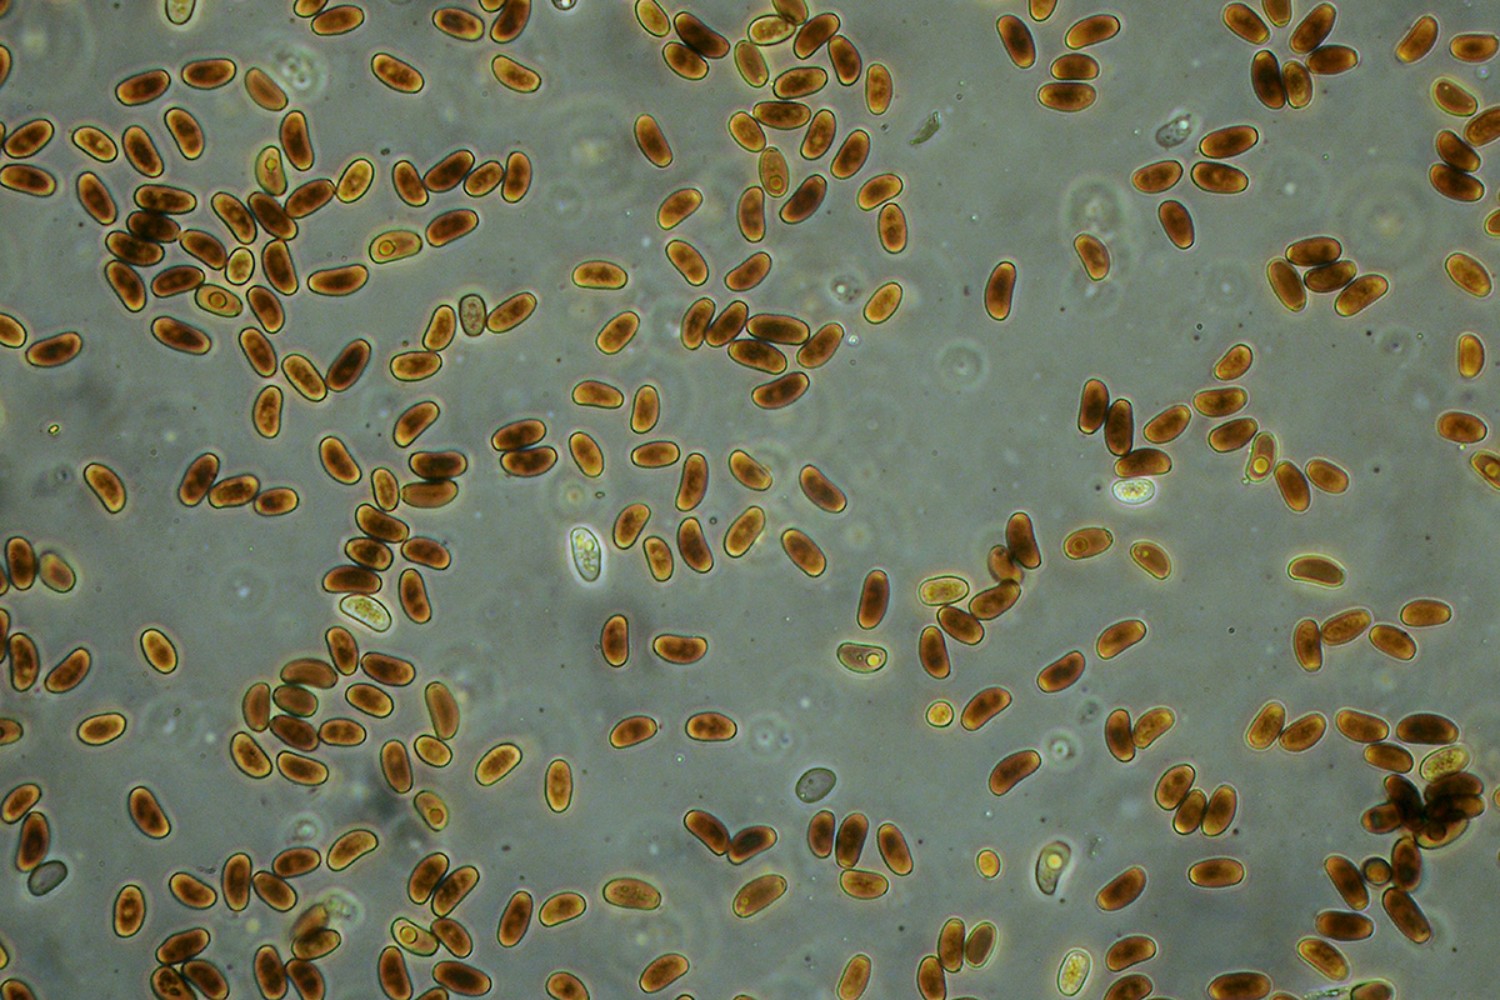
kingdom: Fungi
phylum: Basidiomycota
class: Agaricomycetes
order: Agaricales
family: Psathyrellaceae
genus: Coprinellus
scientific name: Coprinellus domesticus
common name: hus-blækhat
